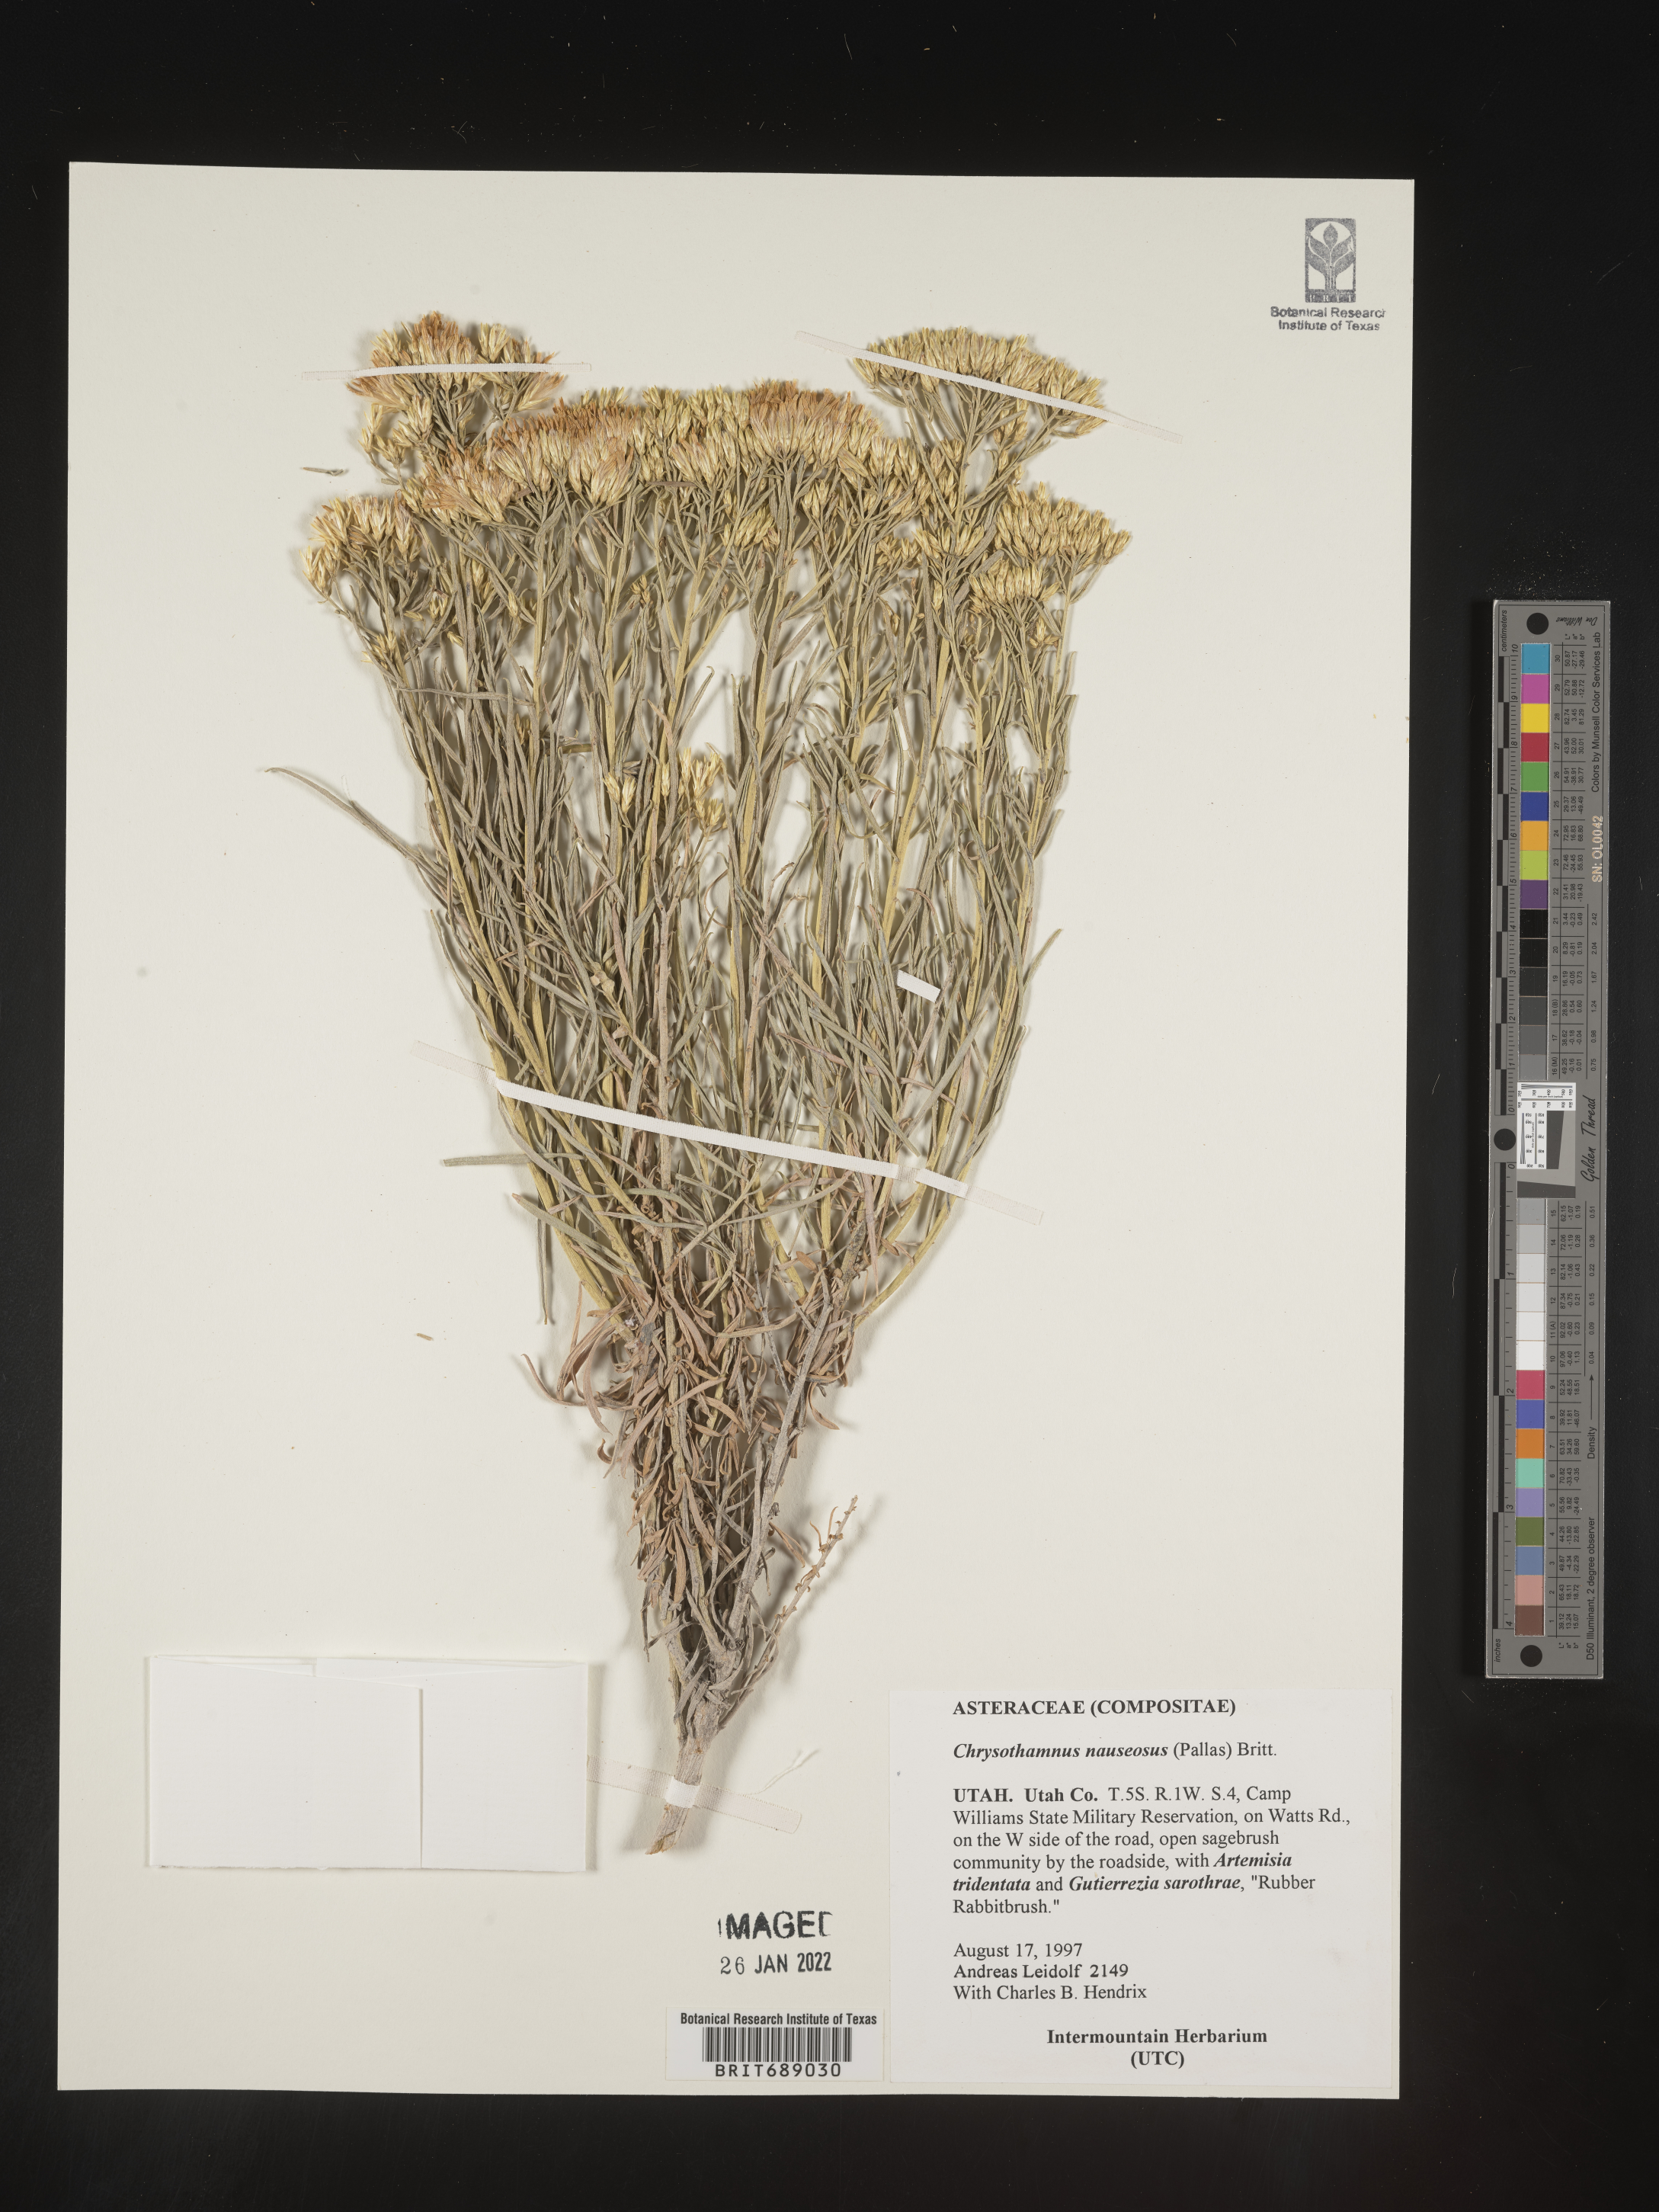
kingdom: Plantae
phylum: Tracheophyta
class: Magnoliopsida
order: Asterales
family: Asteraceae
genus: Ericameria
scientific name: Ericameria nauseosa
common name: Rubber rabbitbrush
